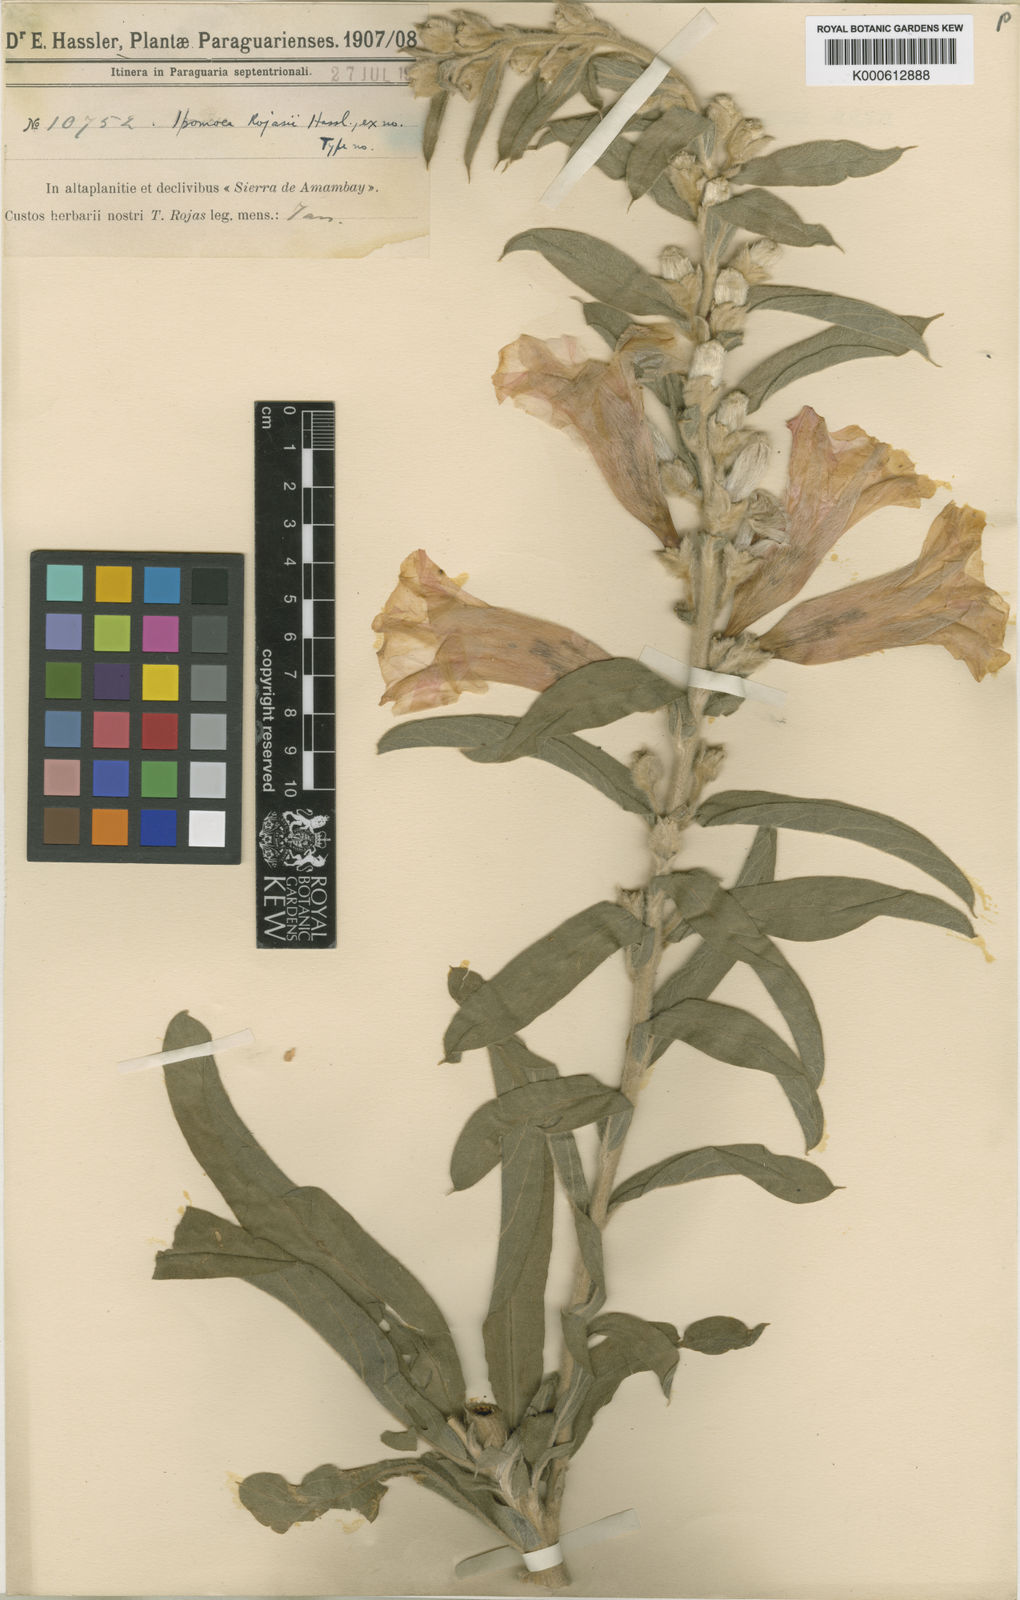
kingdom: Plantae
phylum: Tracheophyta
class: Magnoliopsida
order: Solanales
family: Convolvulaceae
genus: Ipomoea
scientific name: Ipomoea rojasii
